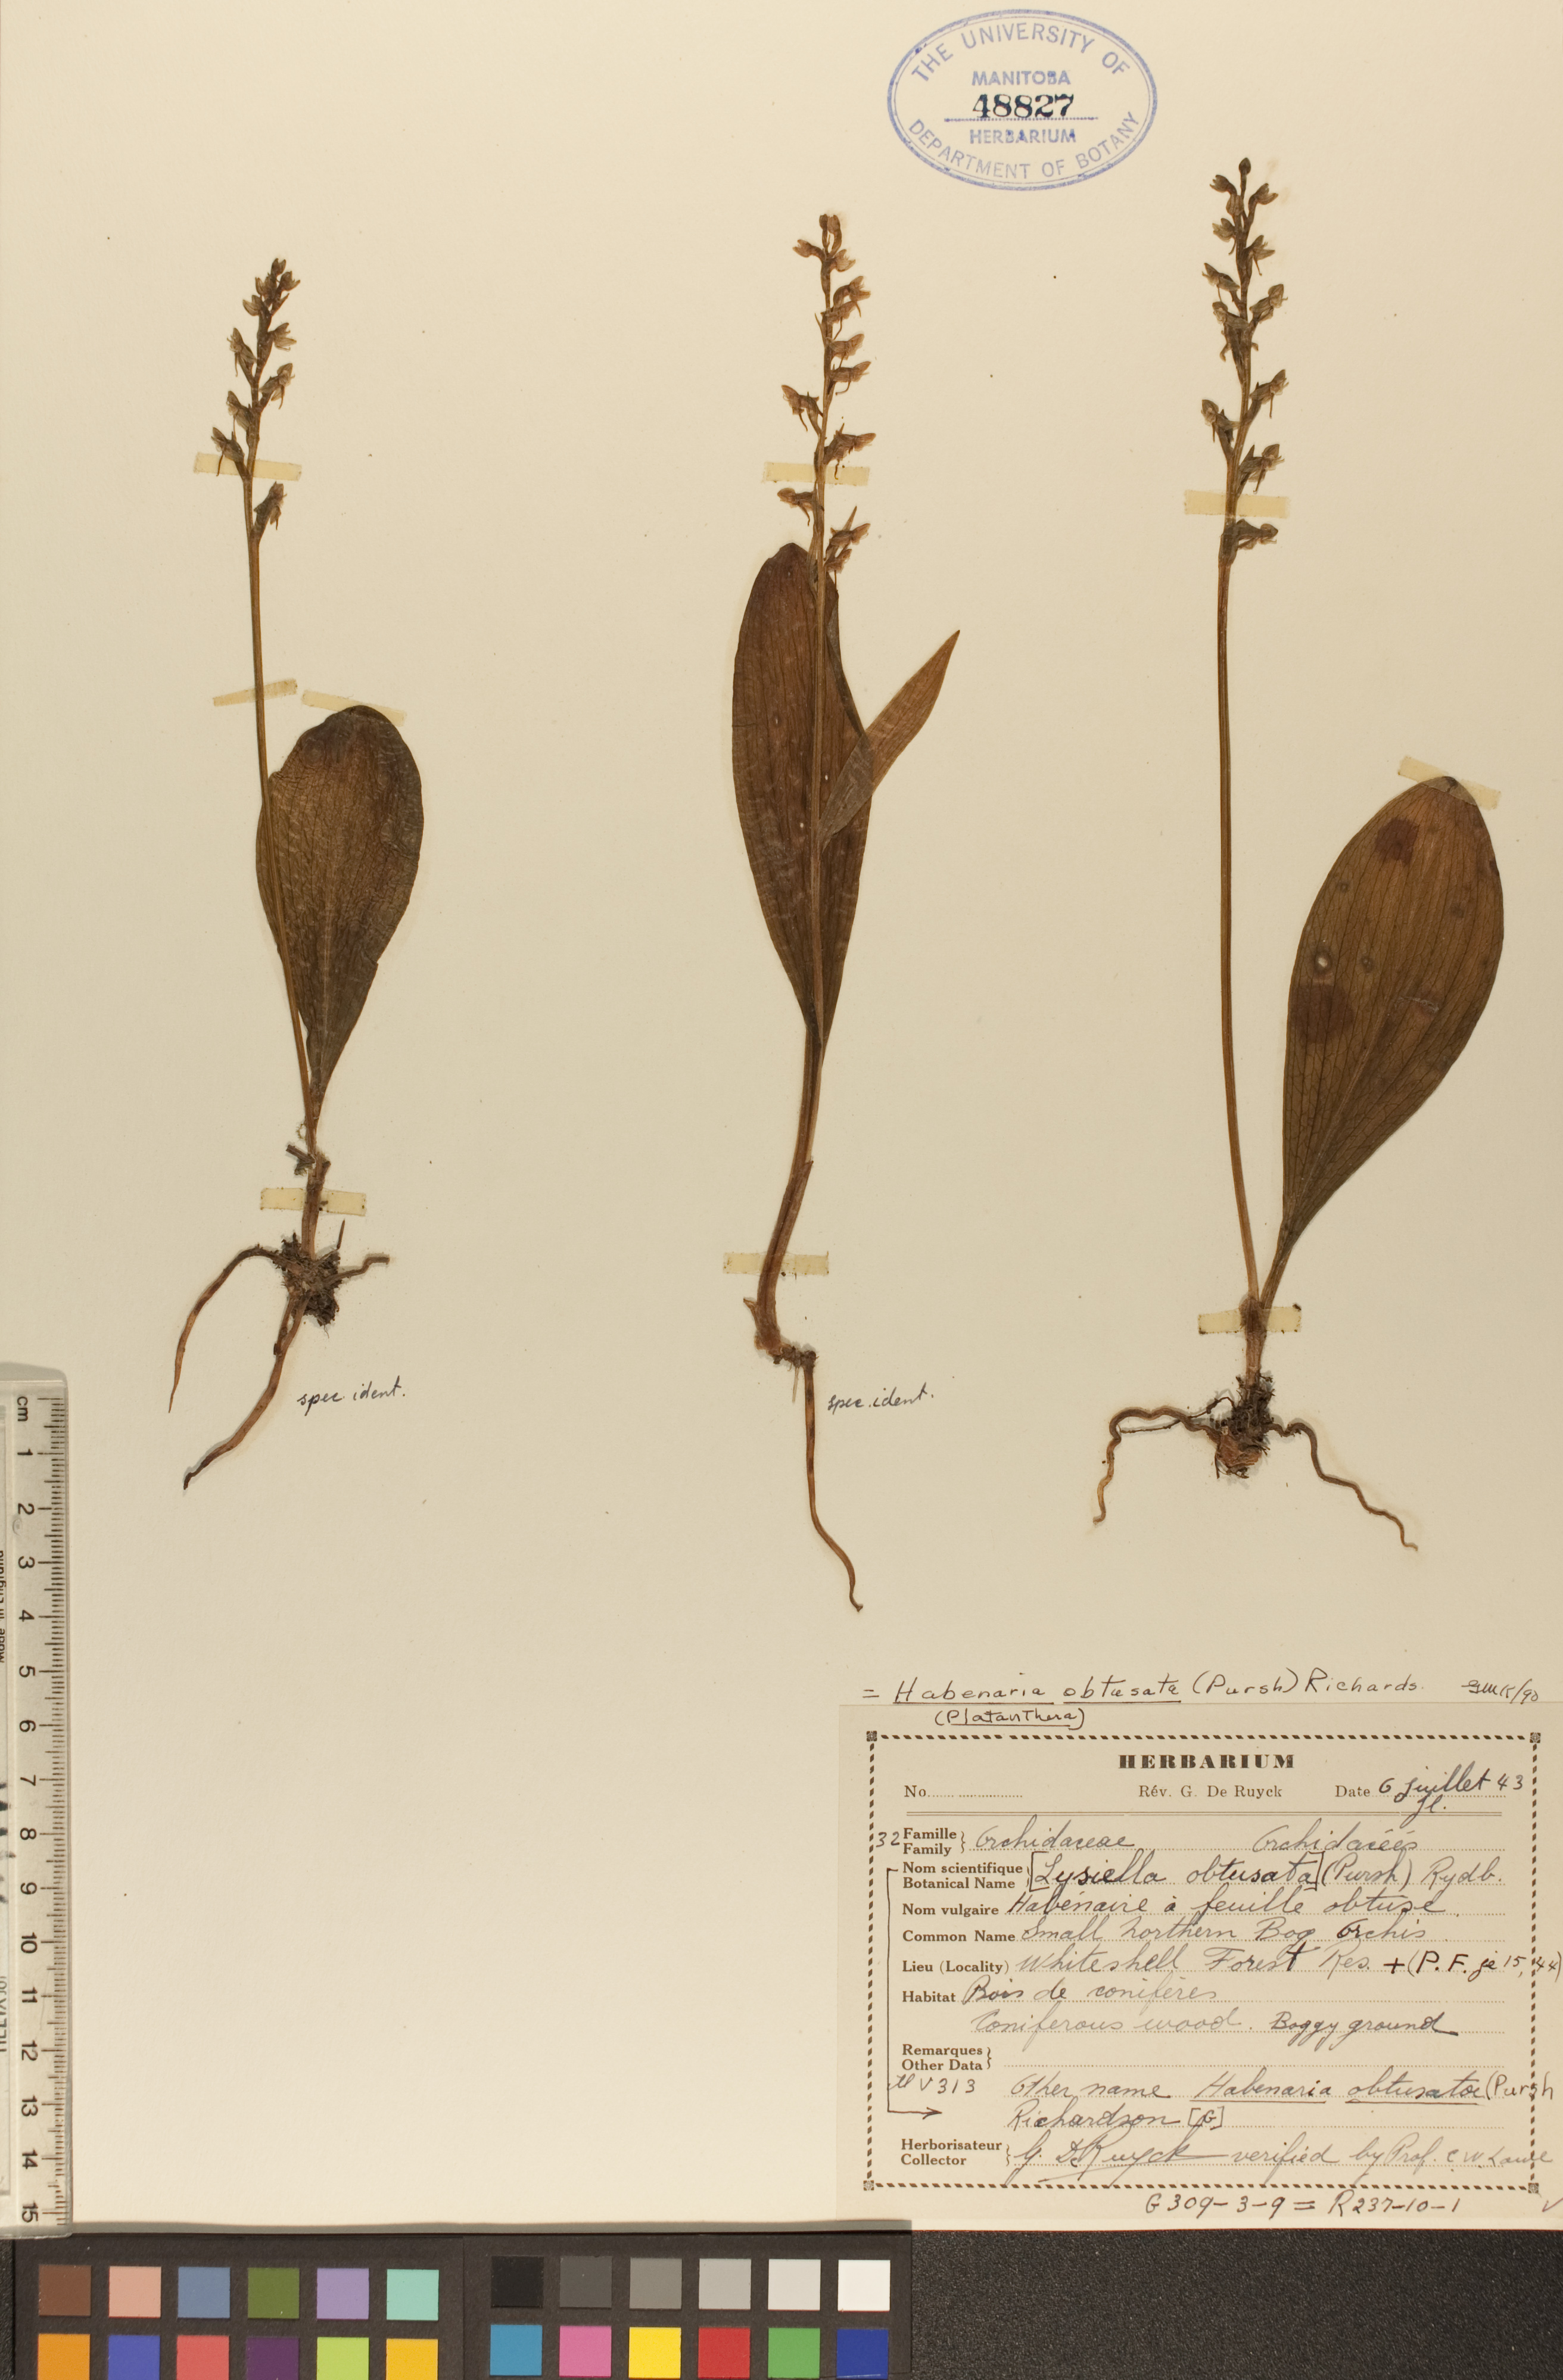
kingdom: Plantae
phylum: Tracheophyta
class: Liliopsida
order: Asparagales
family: Orchidaceae
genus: Platanthera
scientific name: Platanthera obtusata
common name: Blunt bog orchid
